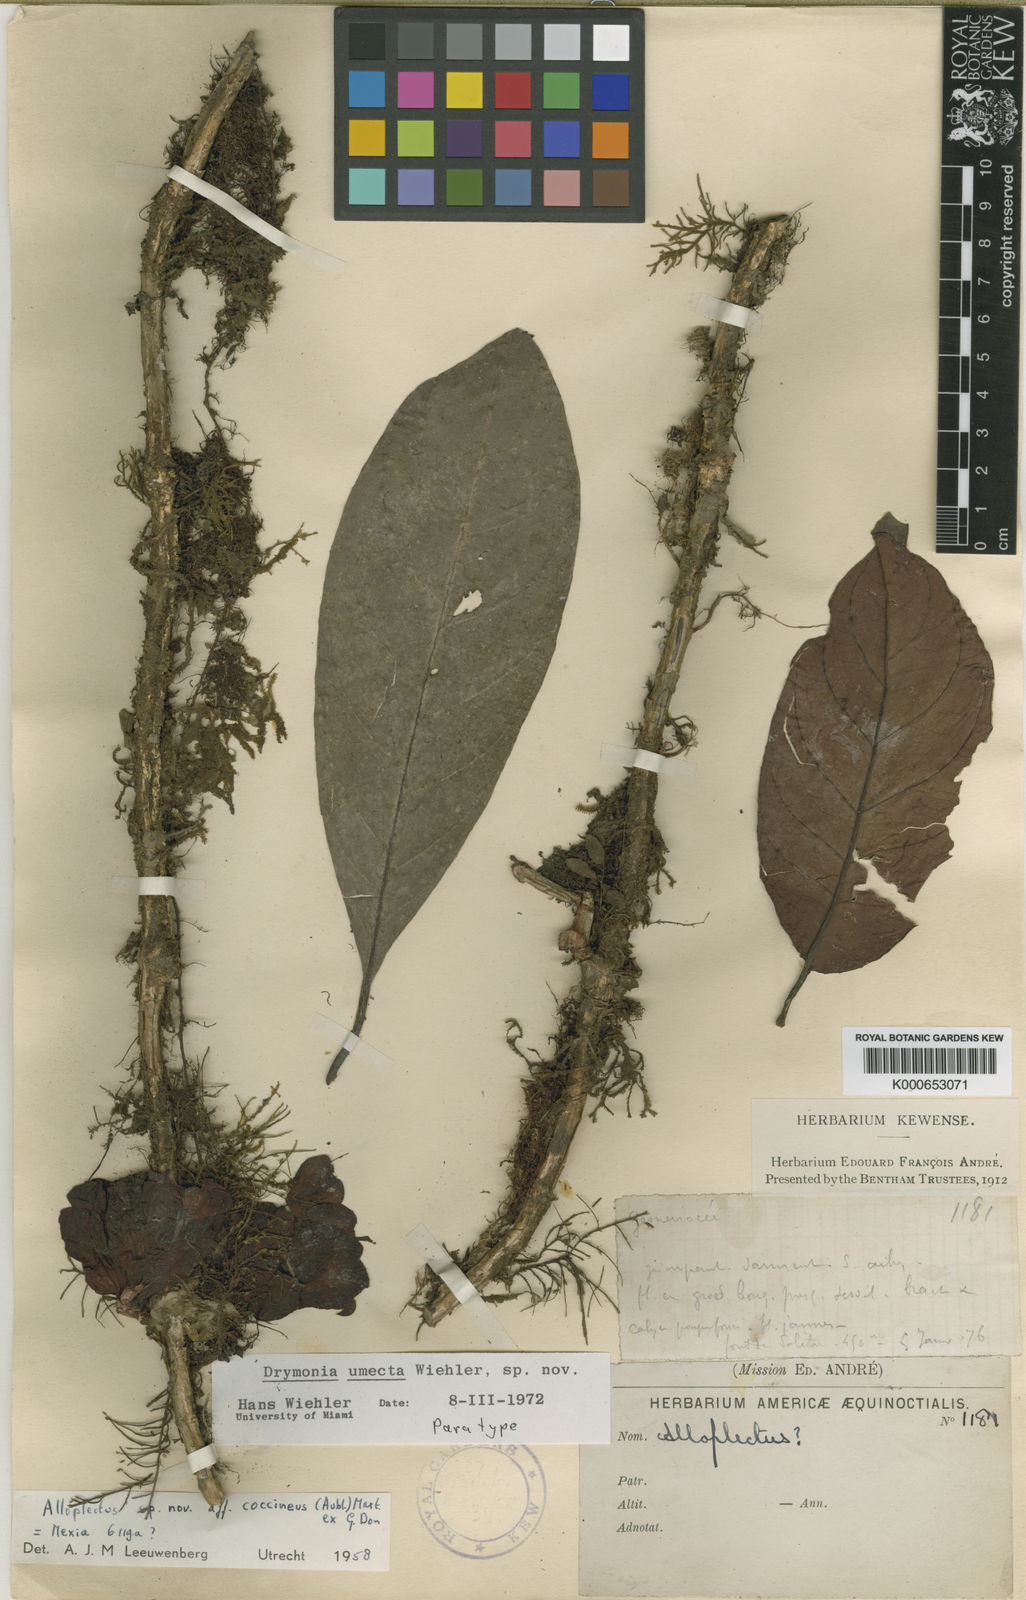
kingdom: Plantae
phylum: Tracheophyta
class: Magnoliopsida
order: Lamiales
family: Gesneriaceae
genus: Drymonia
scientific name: Drymonia
